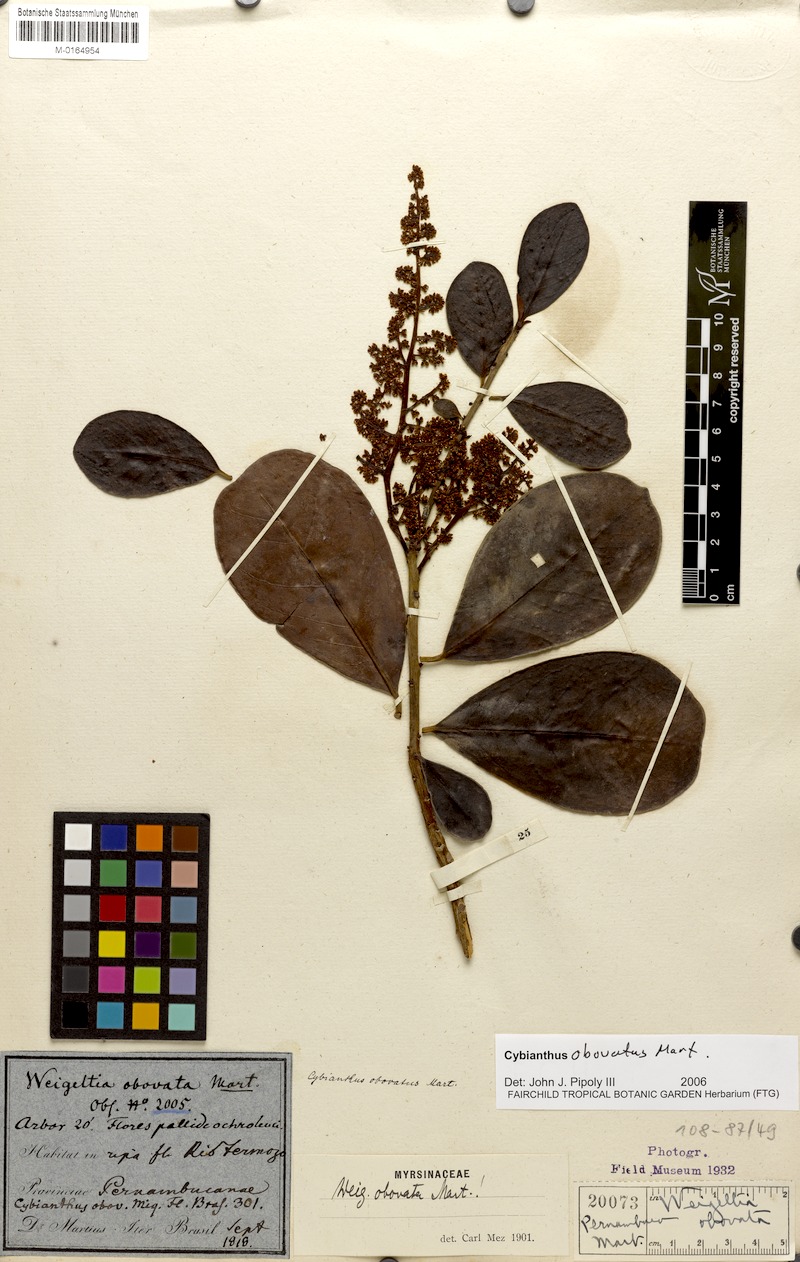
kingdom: Plantae
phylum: Tracheophyta
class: Magnoliopsida
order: Ericales
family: Primulaceae
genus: Cybianthus
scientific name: Cybianthus obovatus
